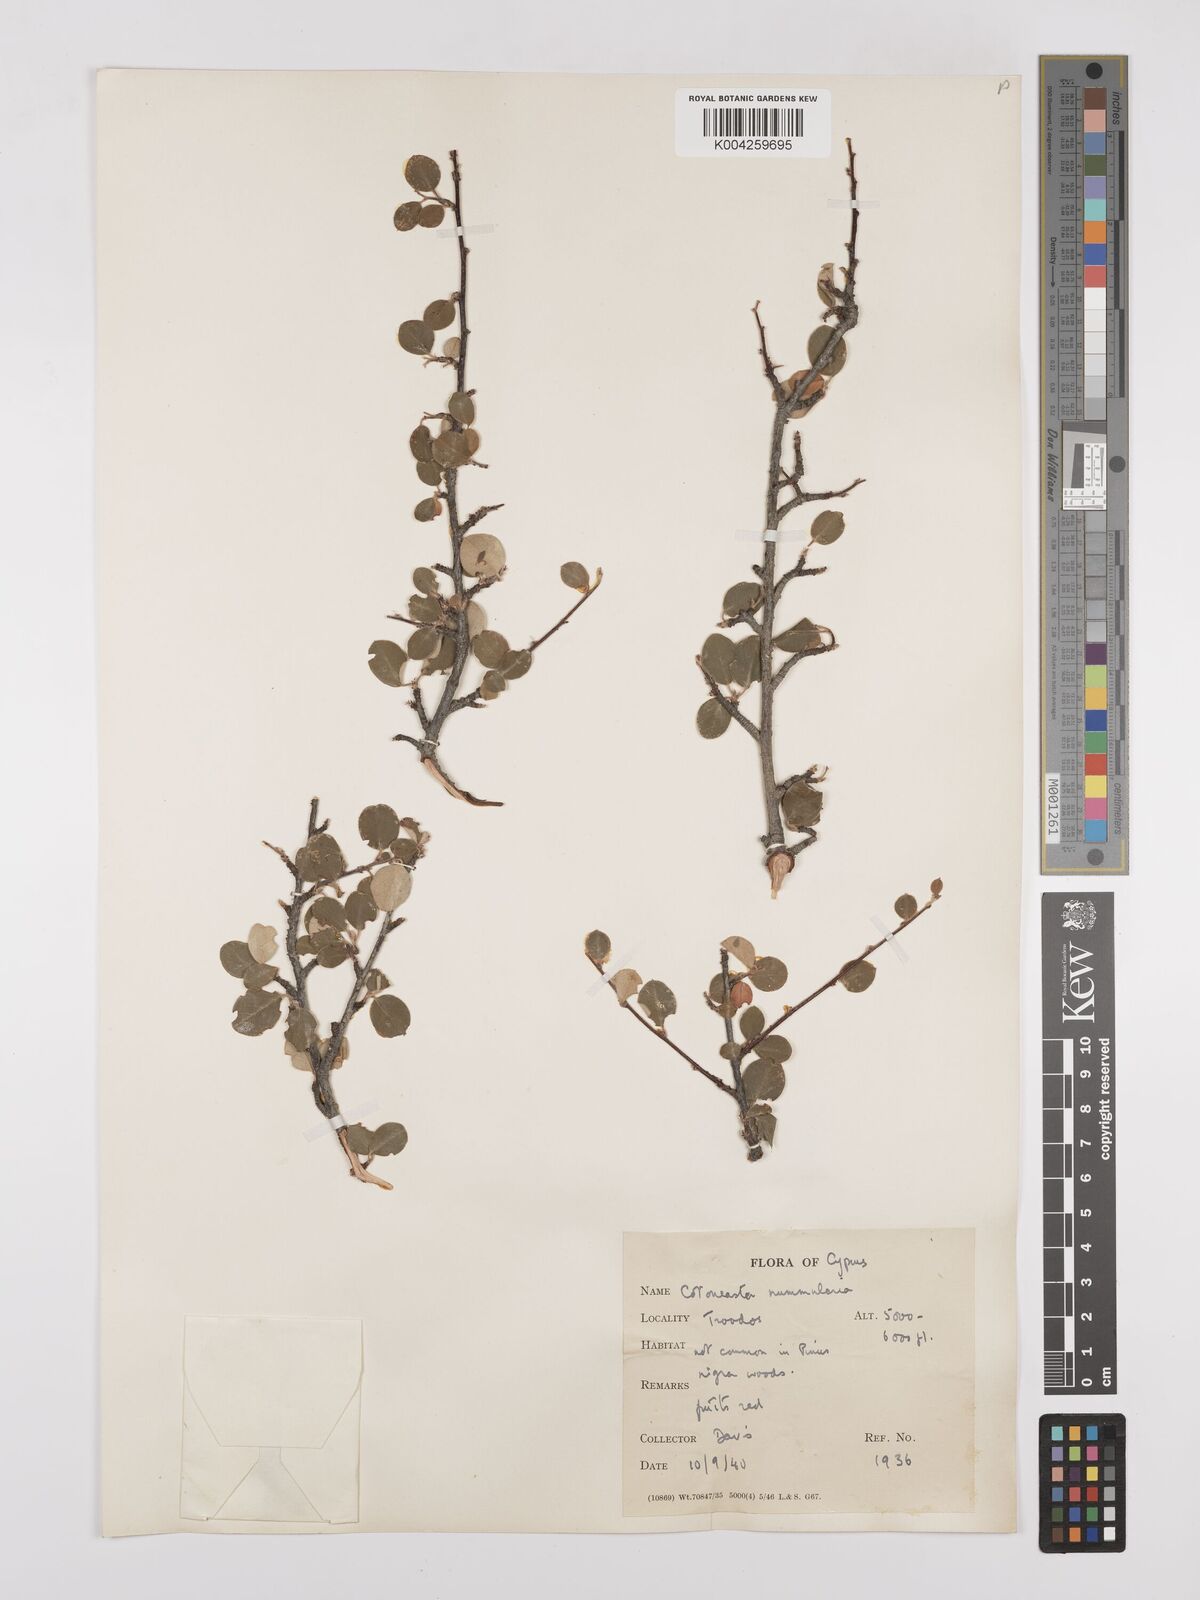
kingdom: Plantae
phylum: Tracheophyta
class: Magnoliopsida
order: Rosales
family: Rosaceae
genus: Cotoneaster
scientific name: Cotoneaster racemiflorus
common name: Cluster-flower cotoneaster
